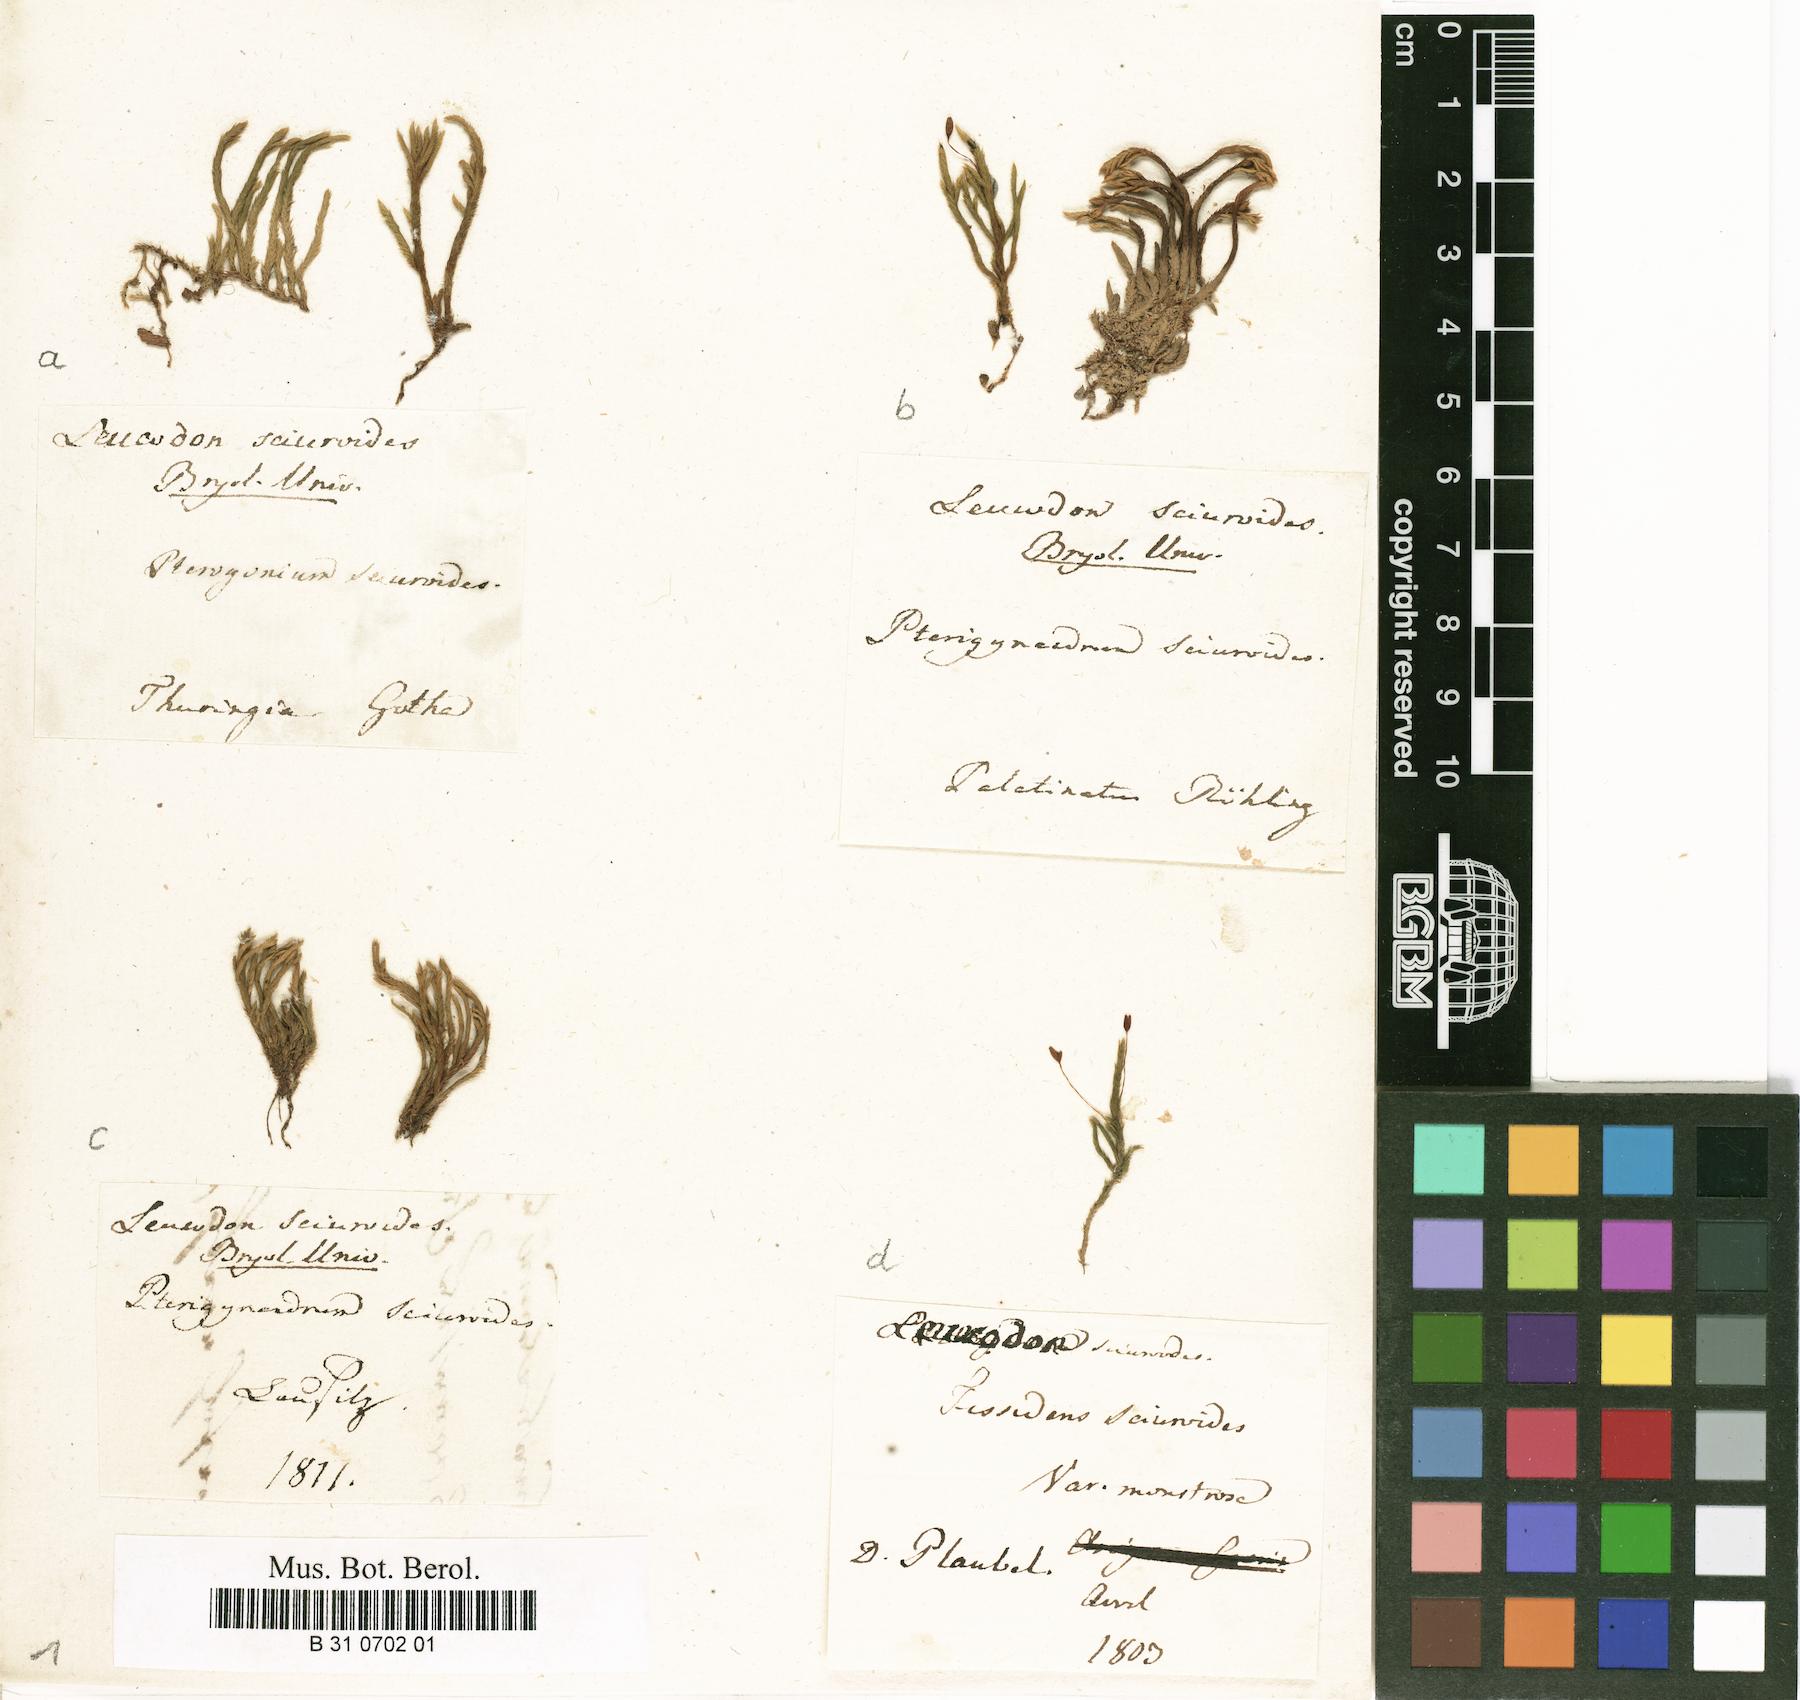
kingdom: Plantae
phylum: Bryophyta
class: Bryopsida
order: Hypnales
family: Leucodontaceae
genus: Leucodon
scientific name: Leucodon sciuroides
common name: Squirrel-tail moss
